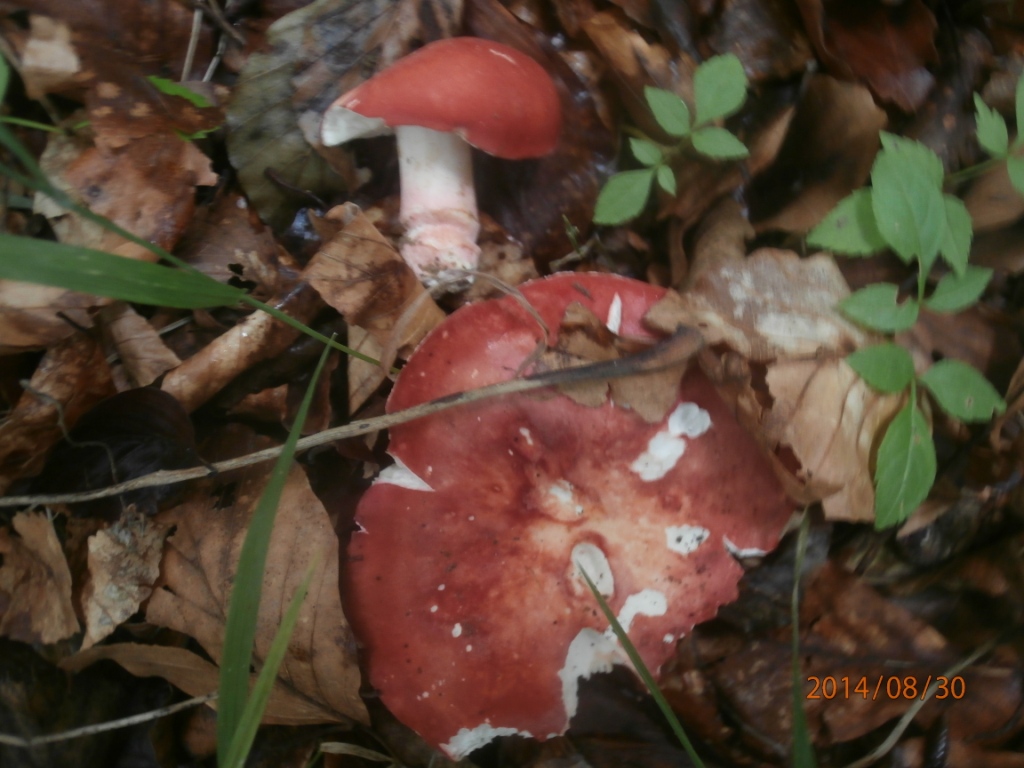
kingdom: Fungi
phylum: Basidiomycota
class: Agaricomycetes
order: Russulales
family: Russulaceae
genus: Russula
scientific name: Russula rosea
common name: fastkødet skørhat
